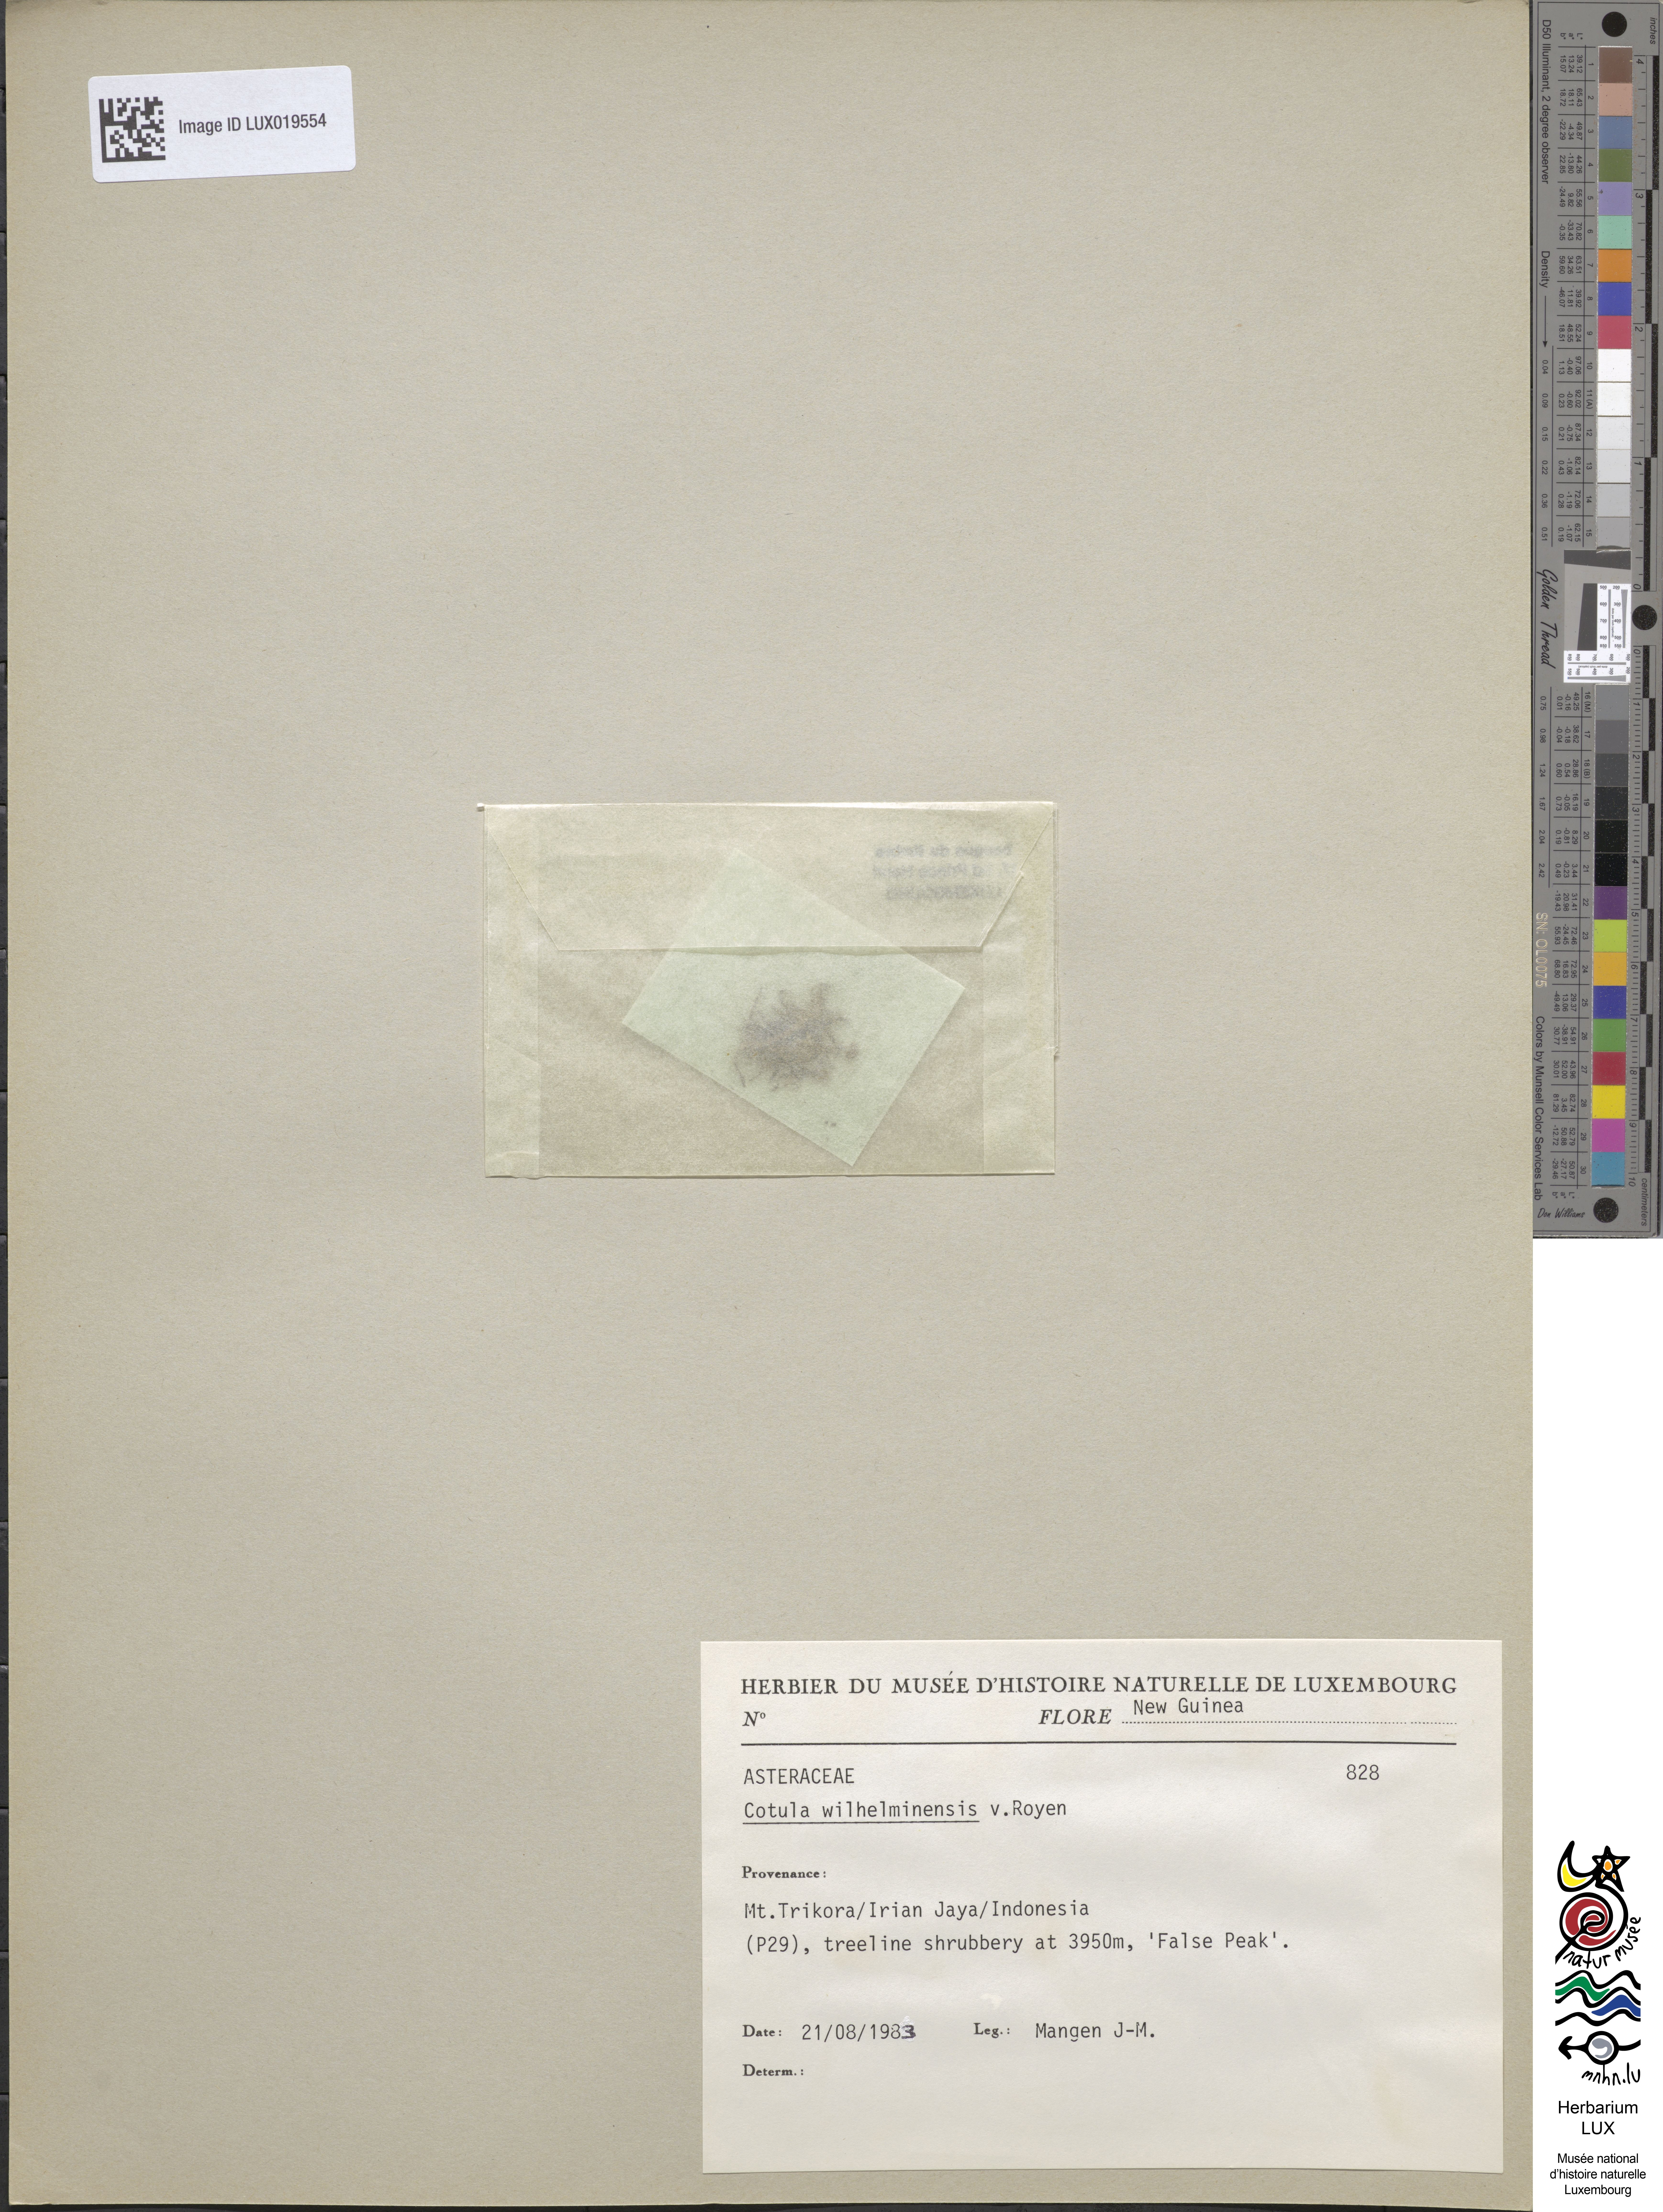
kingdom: Plantae
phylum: Tracheophyta
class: Magnoliopsida
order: Asterales
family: Asteraceae
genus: Leptinella
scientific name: Leptinella wilhelminensis
